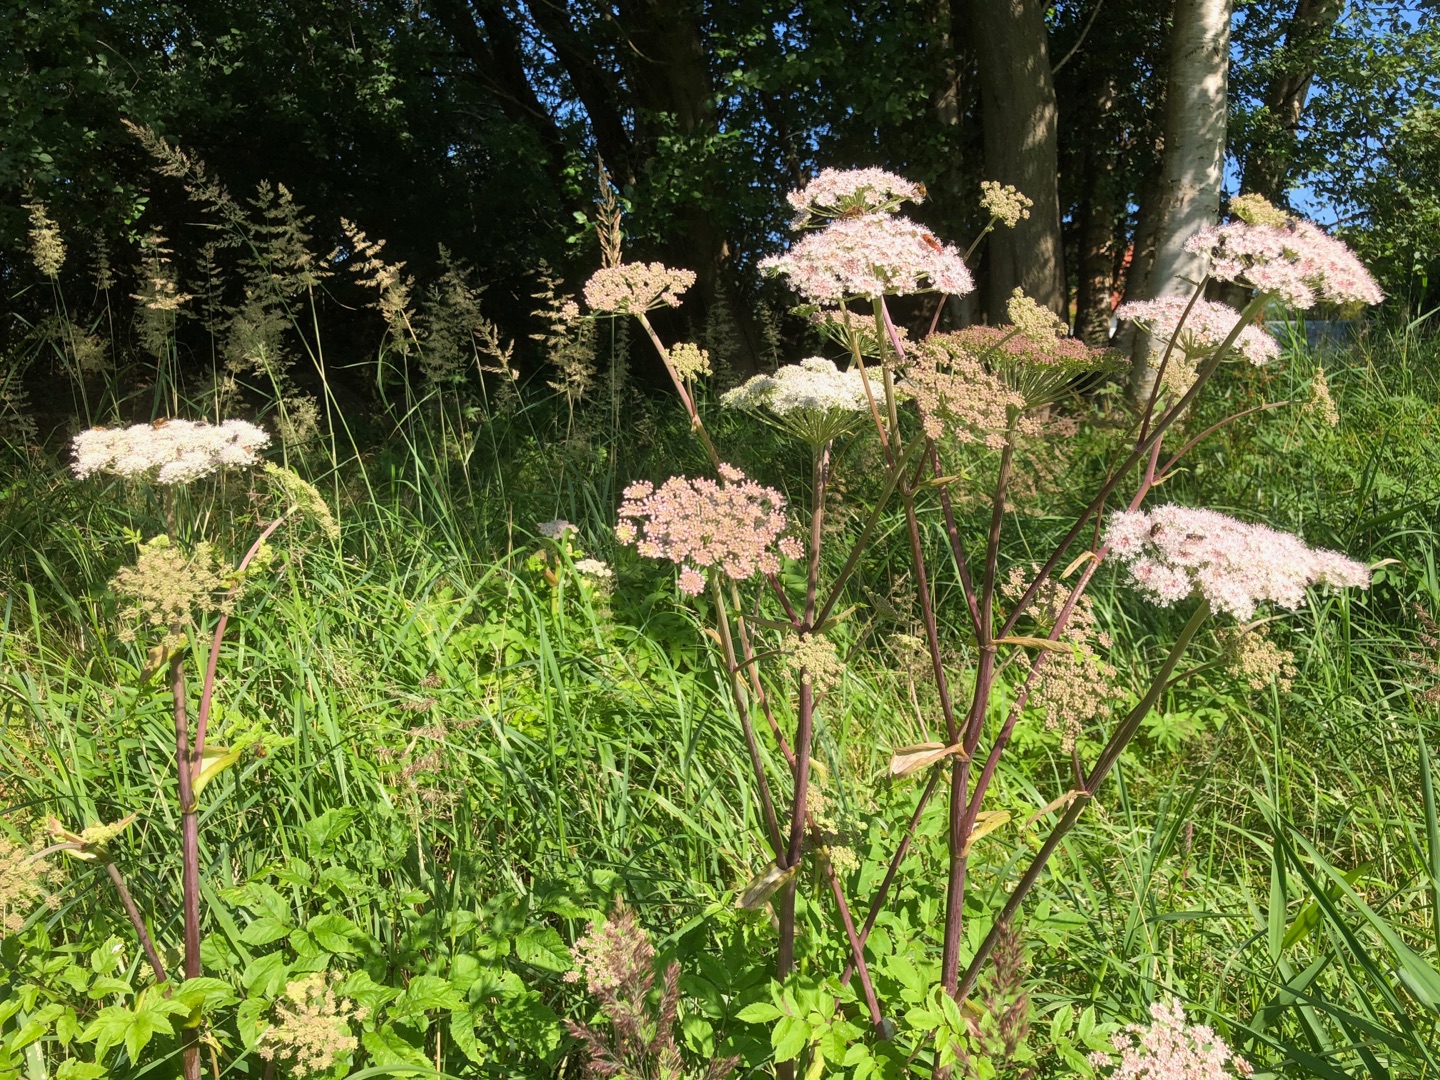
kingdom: Plantae
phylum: Tracheophyta
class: Magnoliopsida
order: Apiales
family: Apiaceae
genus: Angelica
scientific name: Angelica sylvestris
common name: Angelik
